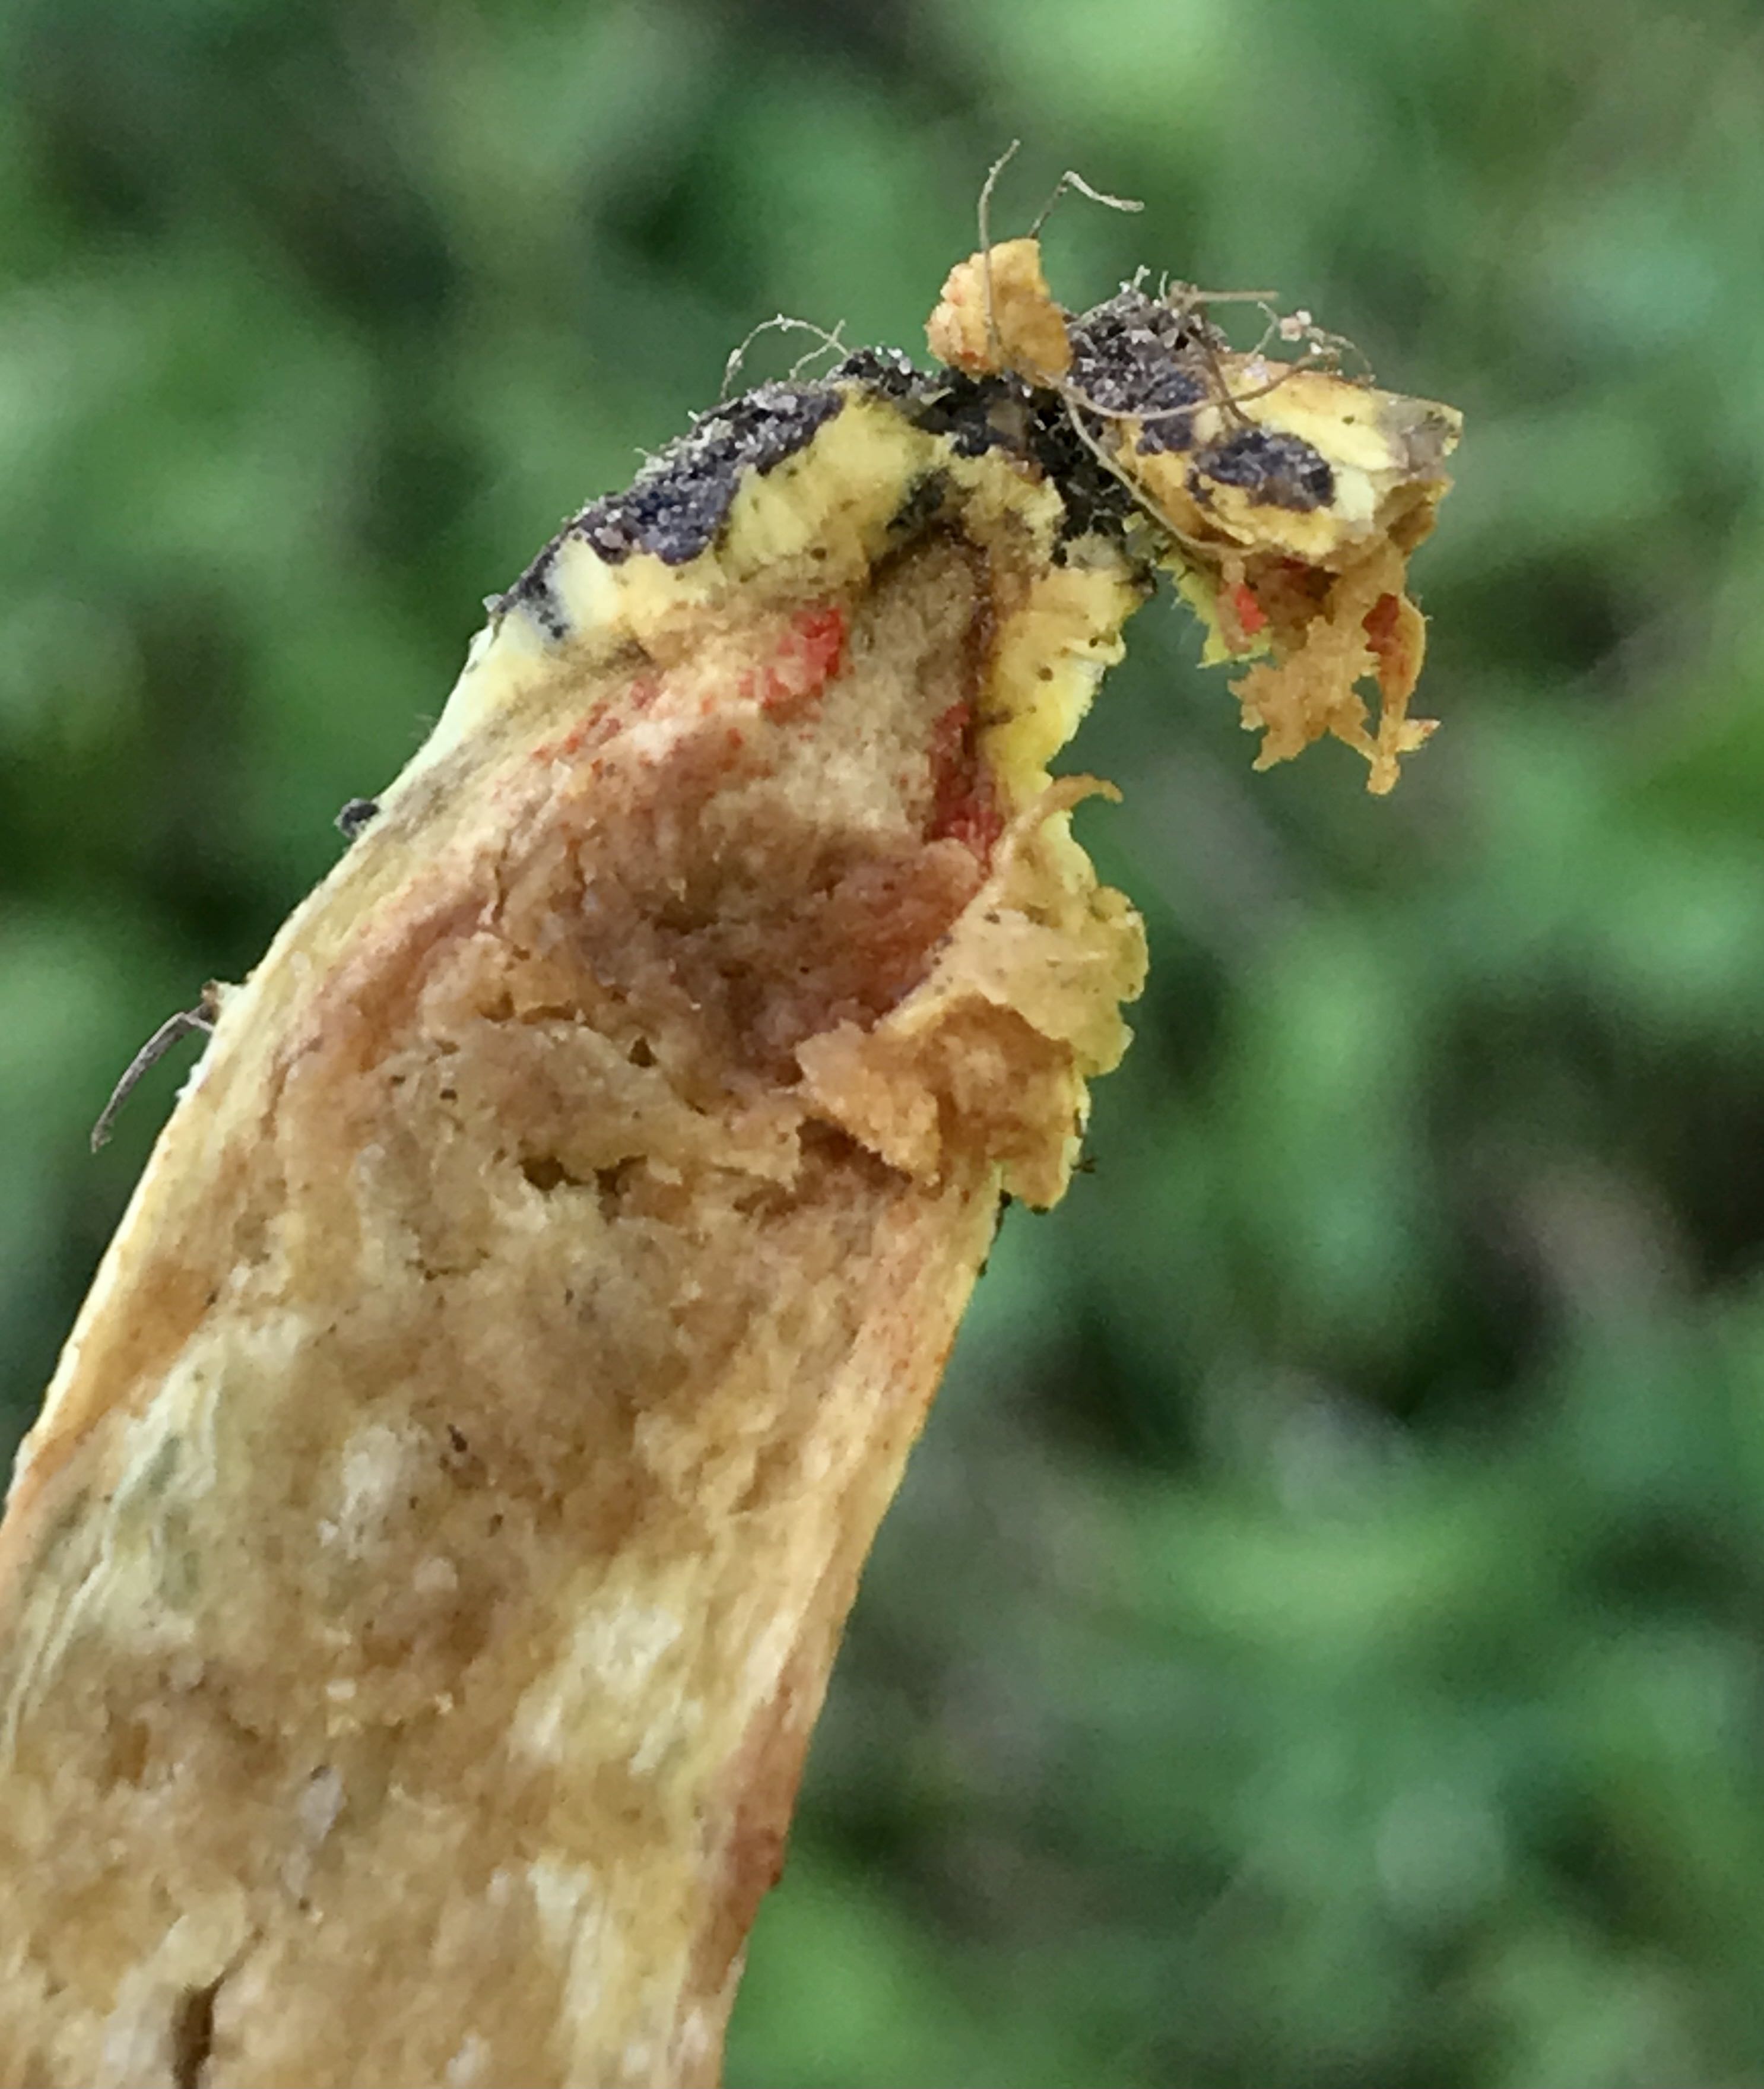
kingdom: Fungi
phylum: Basidiomycota
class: Agaricomycetes
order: Boletales
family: Boletaceae
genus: Hortiboletus
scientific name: Hortiboletus rubellus
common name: blodrød rørhat
